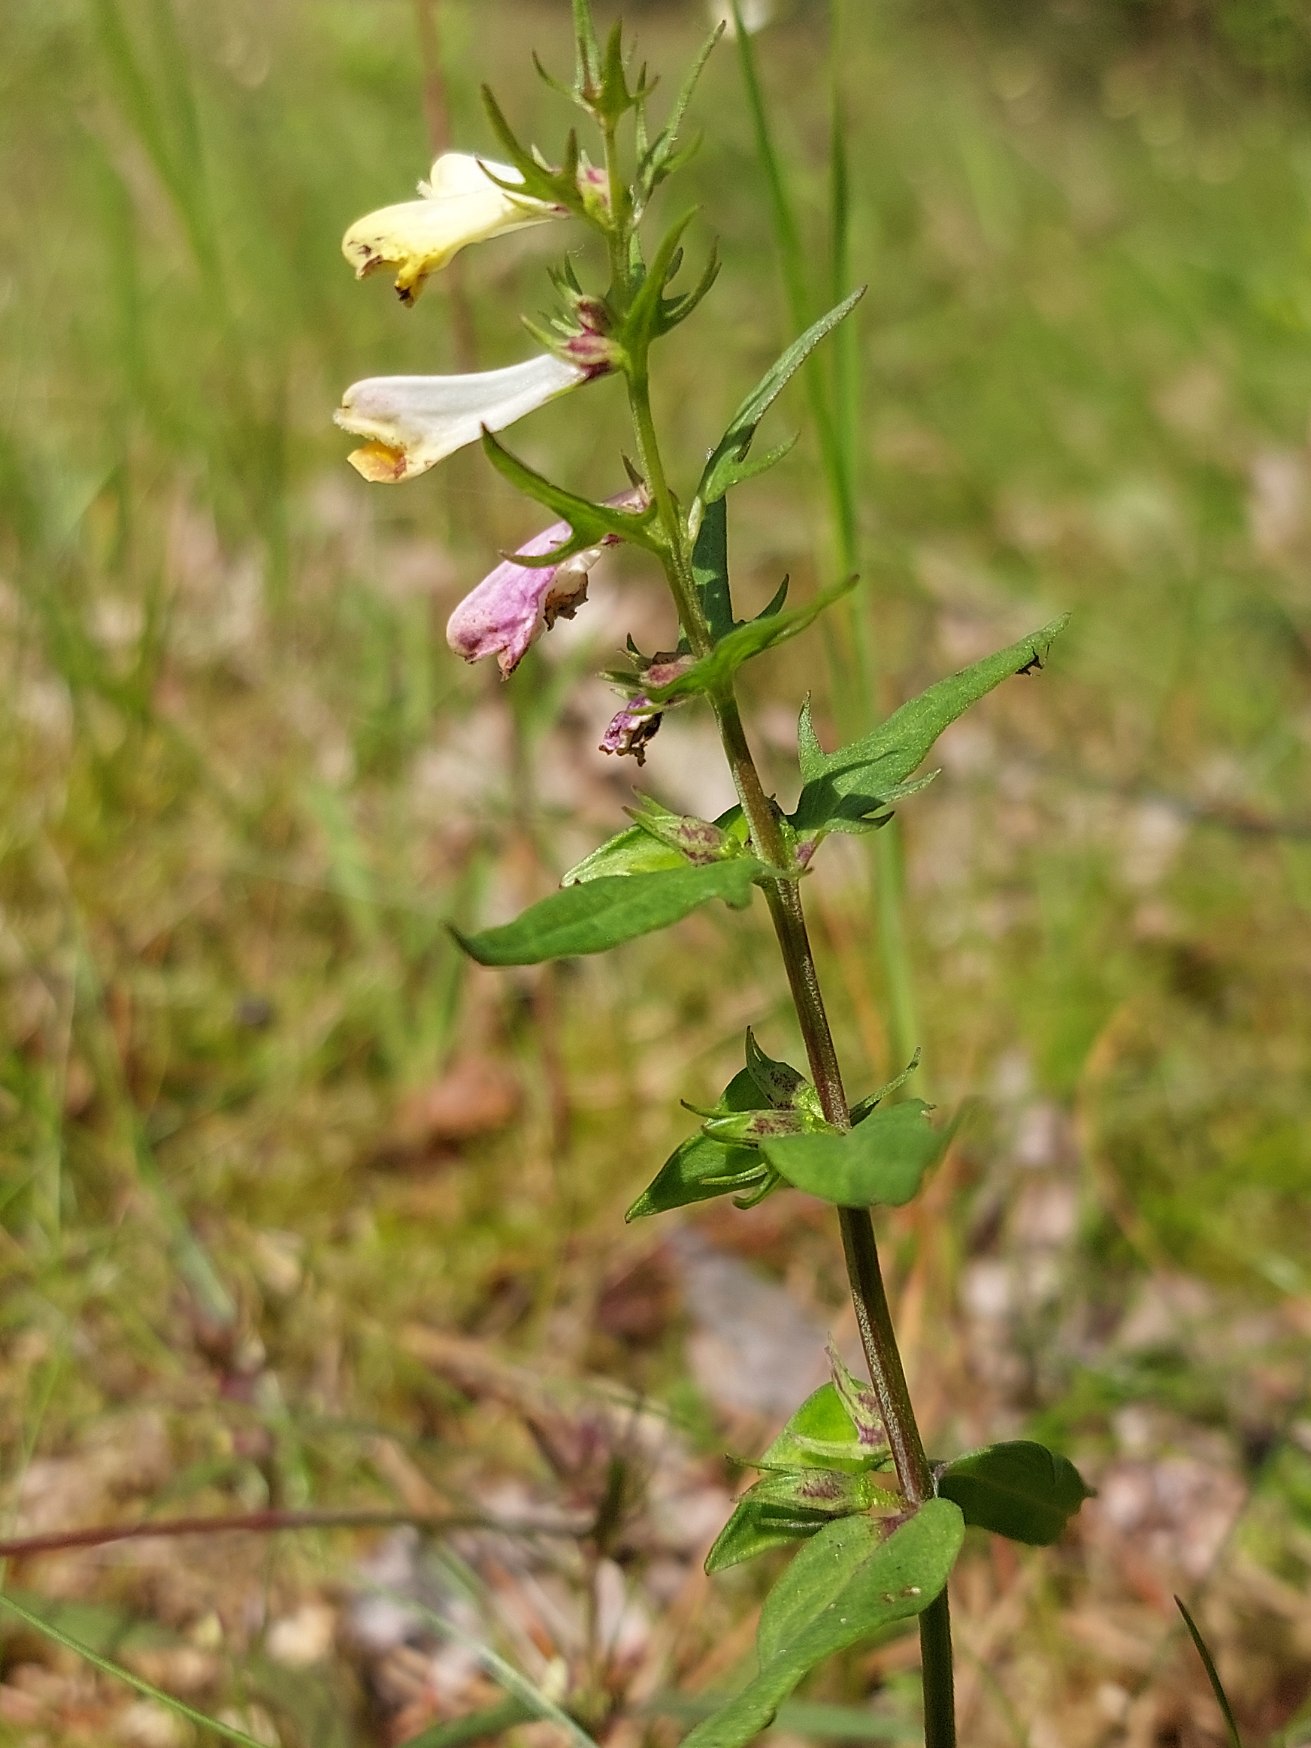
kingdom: Plantae
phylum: Tracheophyta
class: Magnoliopsida
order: Lamiales
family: Orobanchaceae
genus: Melampyrum
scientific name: Melampyrum pratense
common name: Almindelig kohvede
